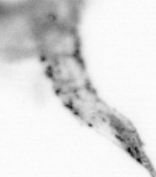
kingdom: Animalia
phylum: Chordata
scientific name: Chordata
